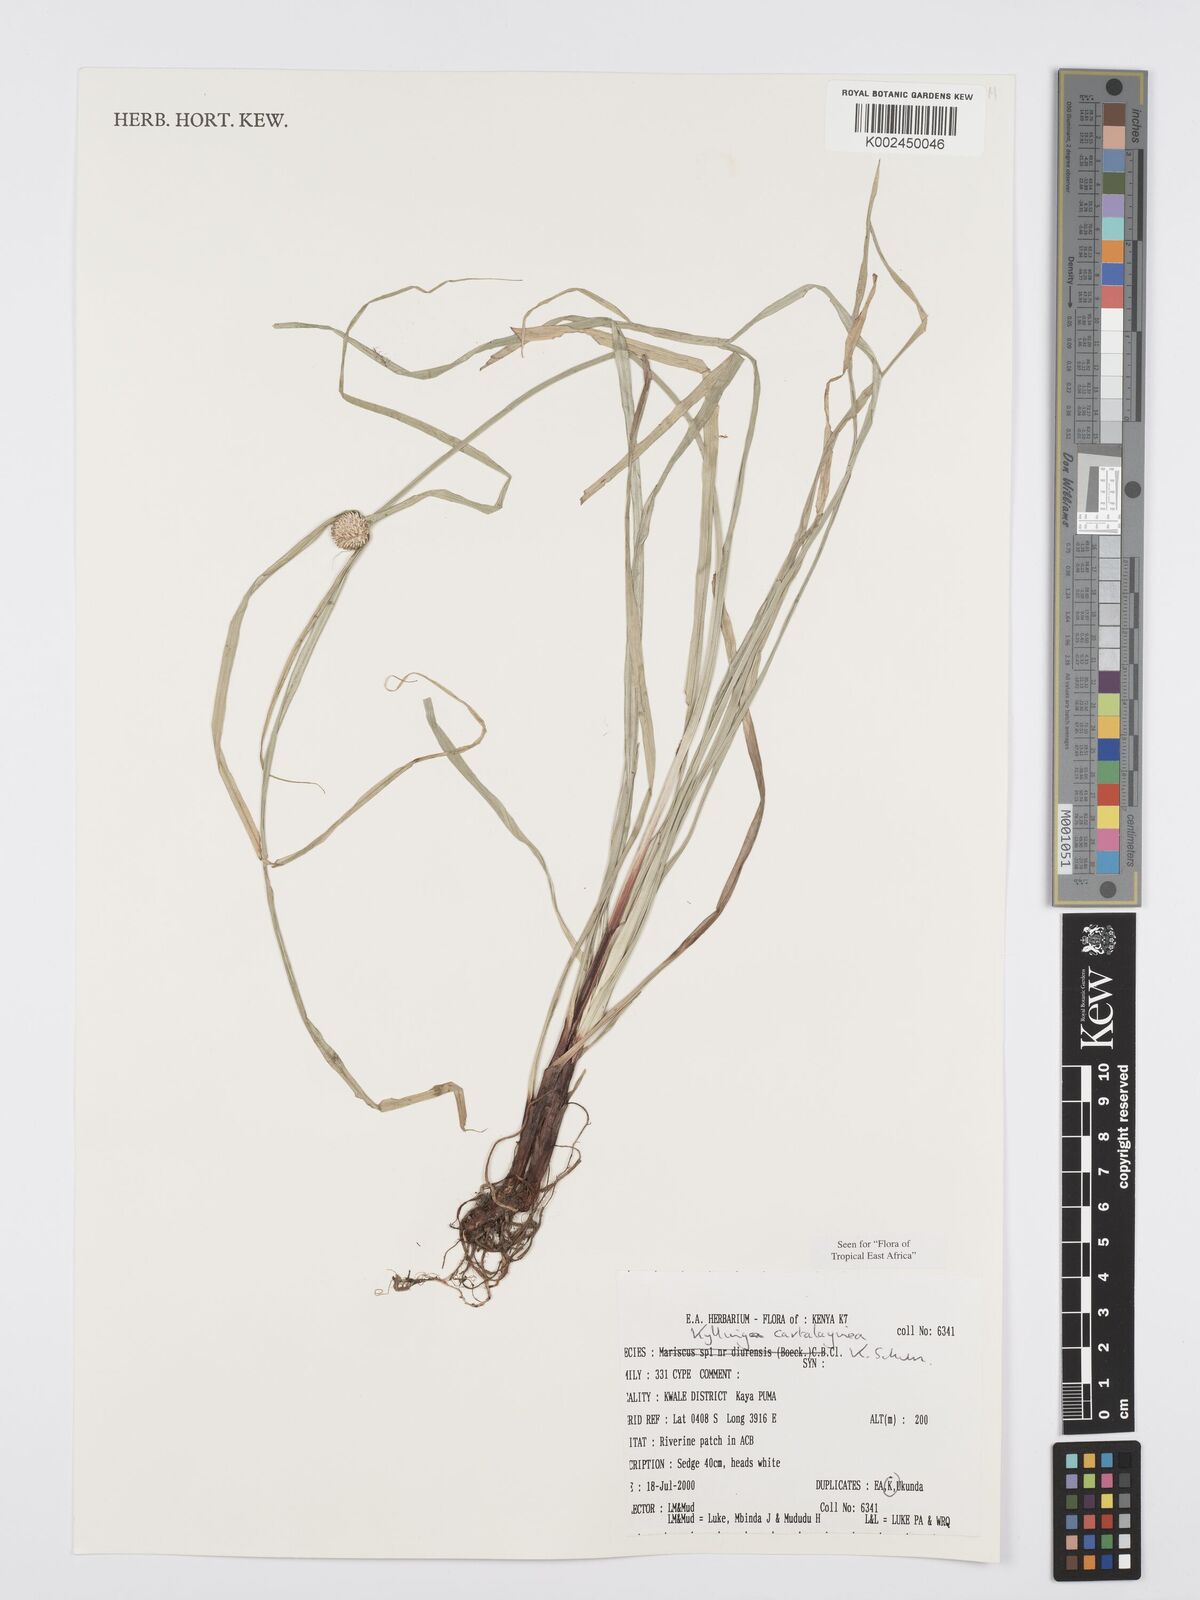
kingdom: Plantae
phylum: Tracheophyta
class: Liliopsida
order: Poales
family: Cyperaceae
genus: Cyperus
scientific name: Cyperus cartilagineus
